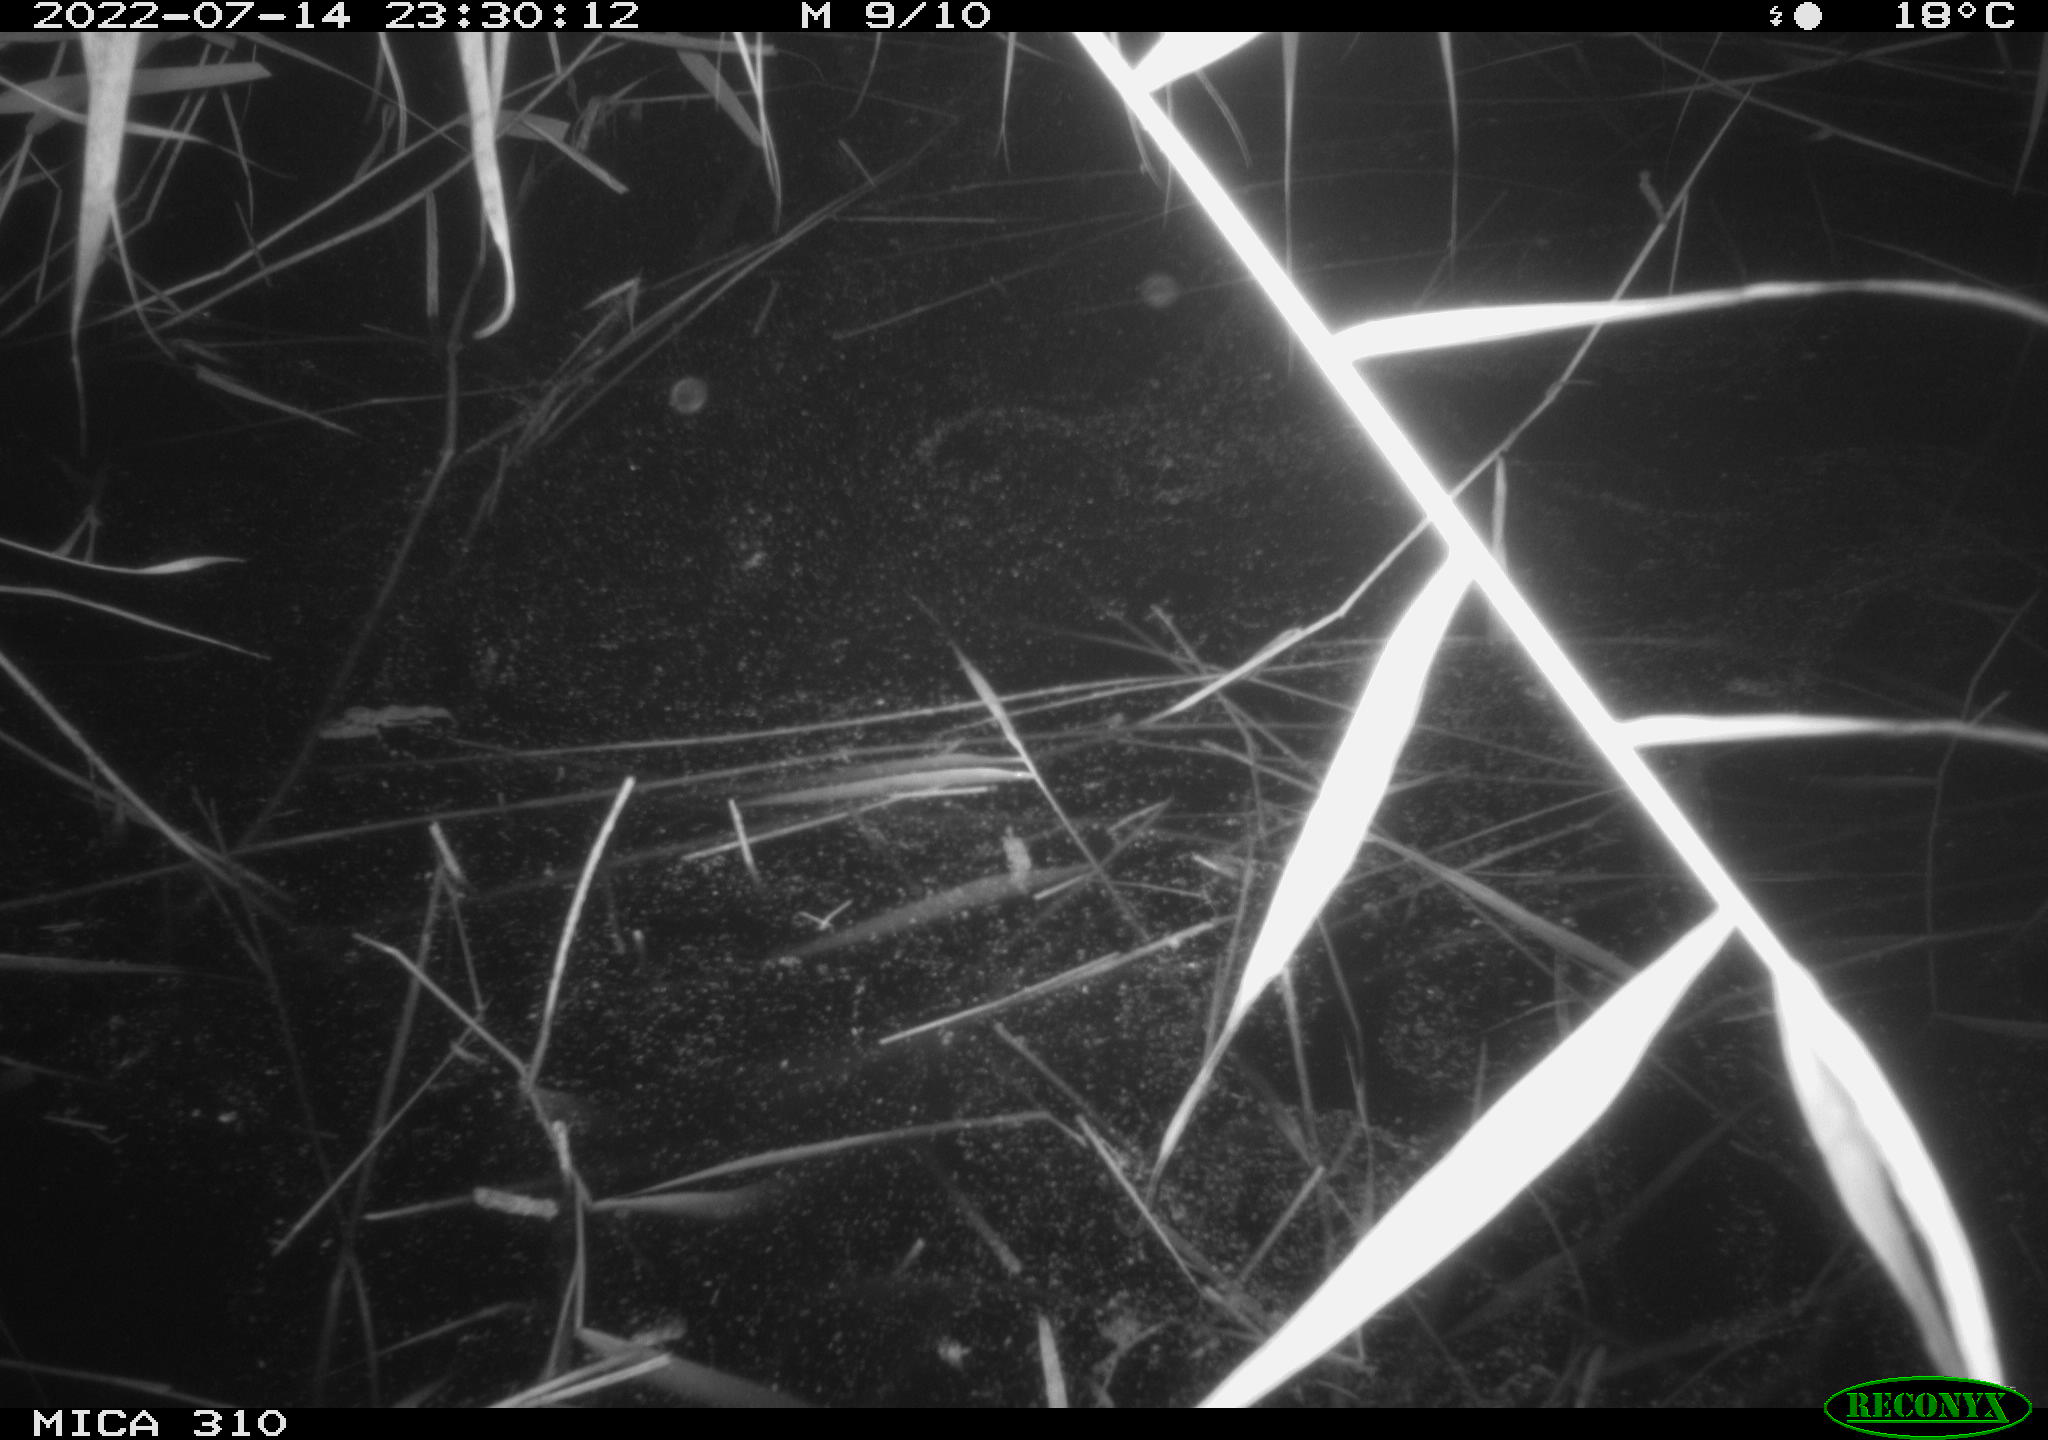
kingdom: Animalia
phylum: Chordata
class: Aves
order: Anseriformes
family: Anatidae
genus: Anas
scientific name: Anas platyrhynchos
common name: Mallard
